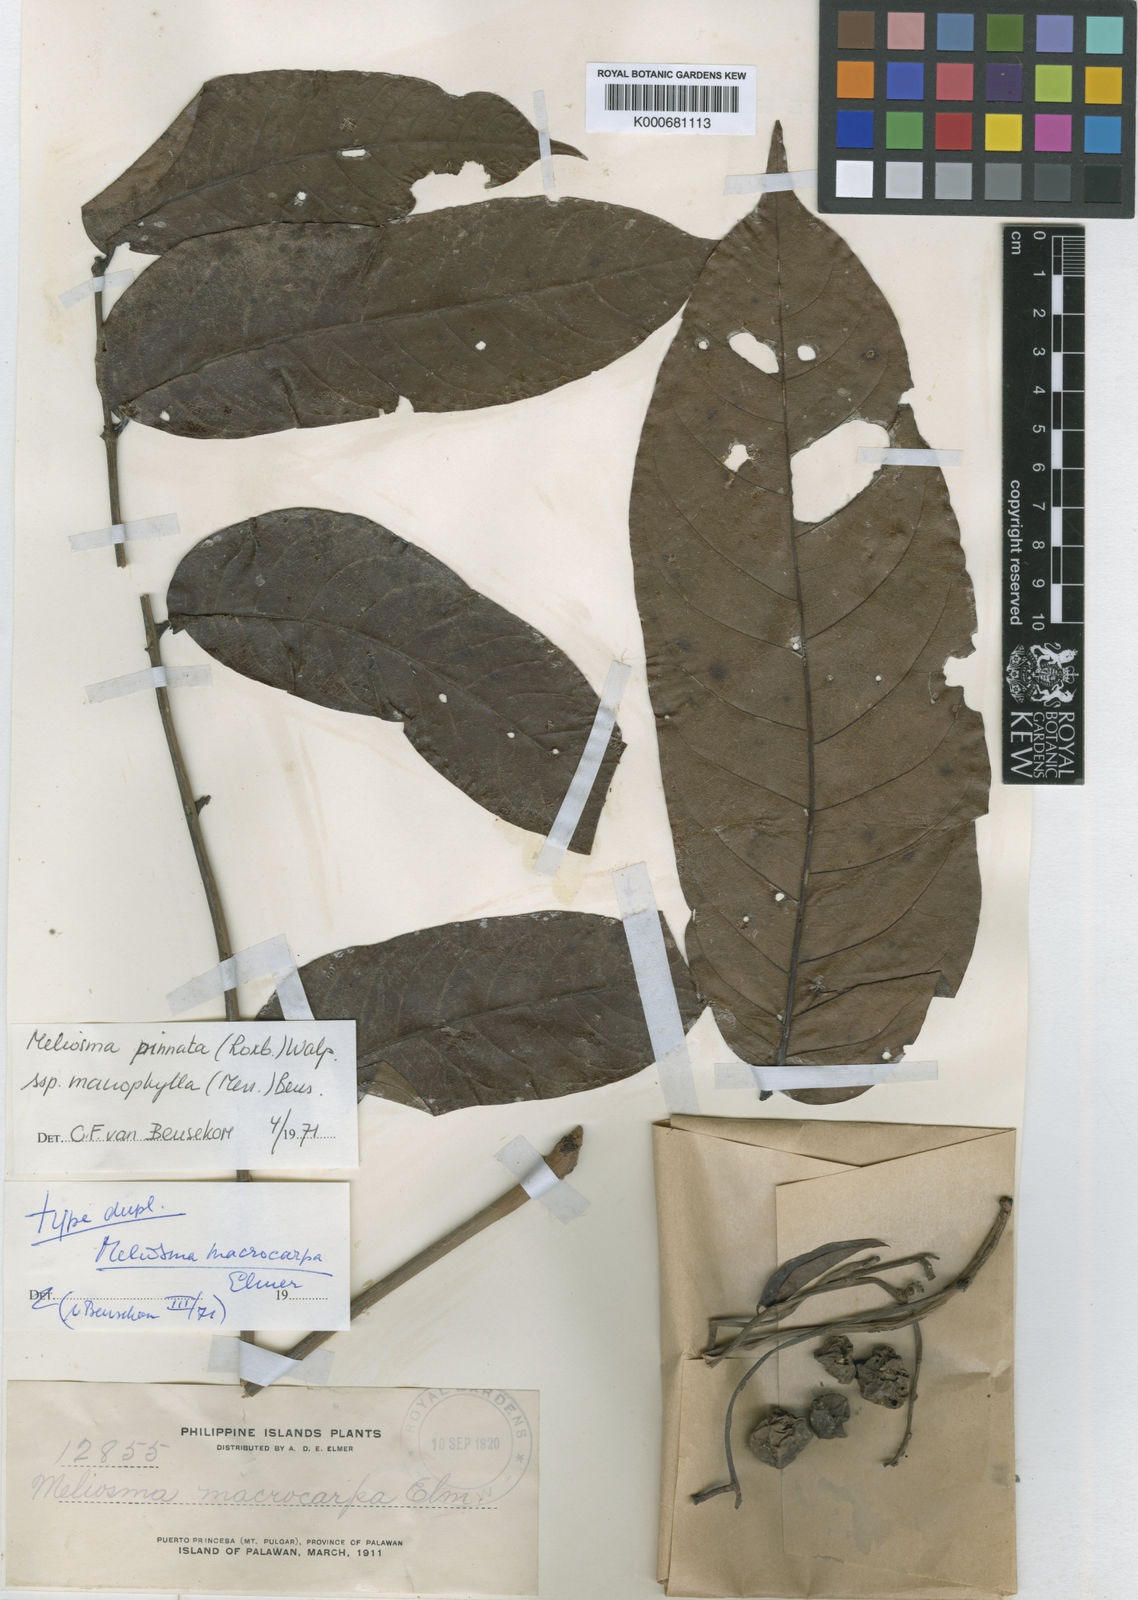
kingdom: Plantae
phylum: Tracheophyta
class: Magnoliopsida
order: Proteales
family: Sabiaceae
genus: Meliosma
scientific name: Meliosma pinnata
